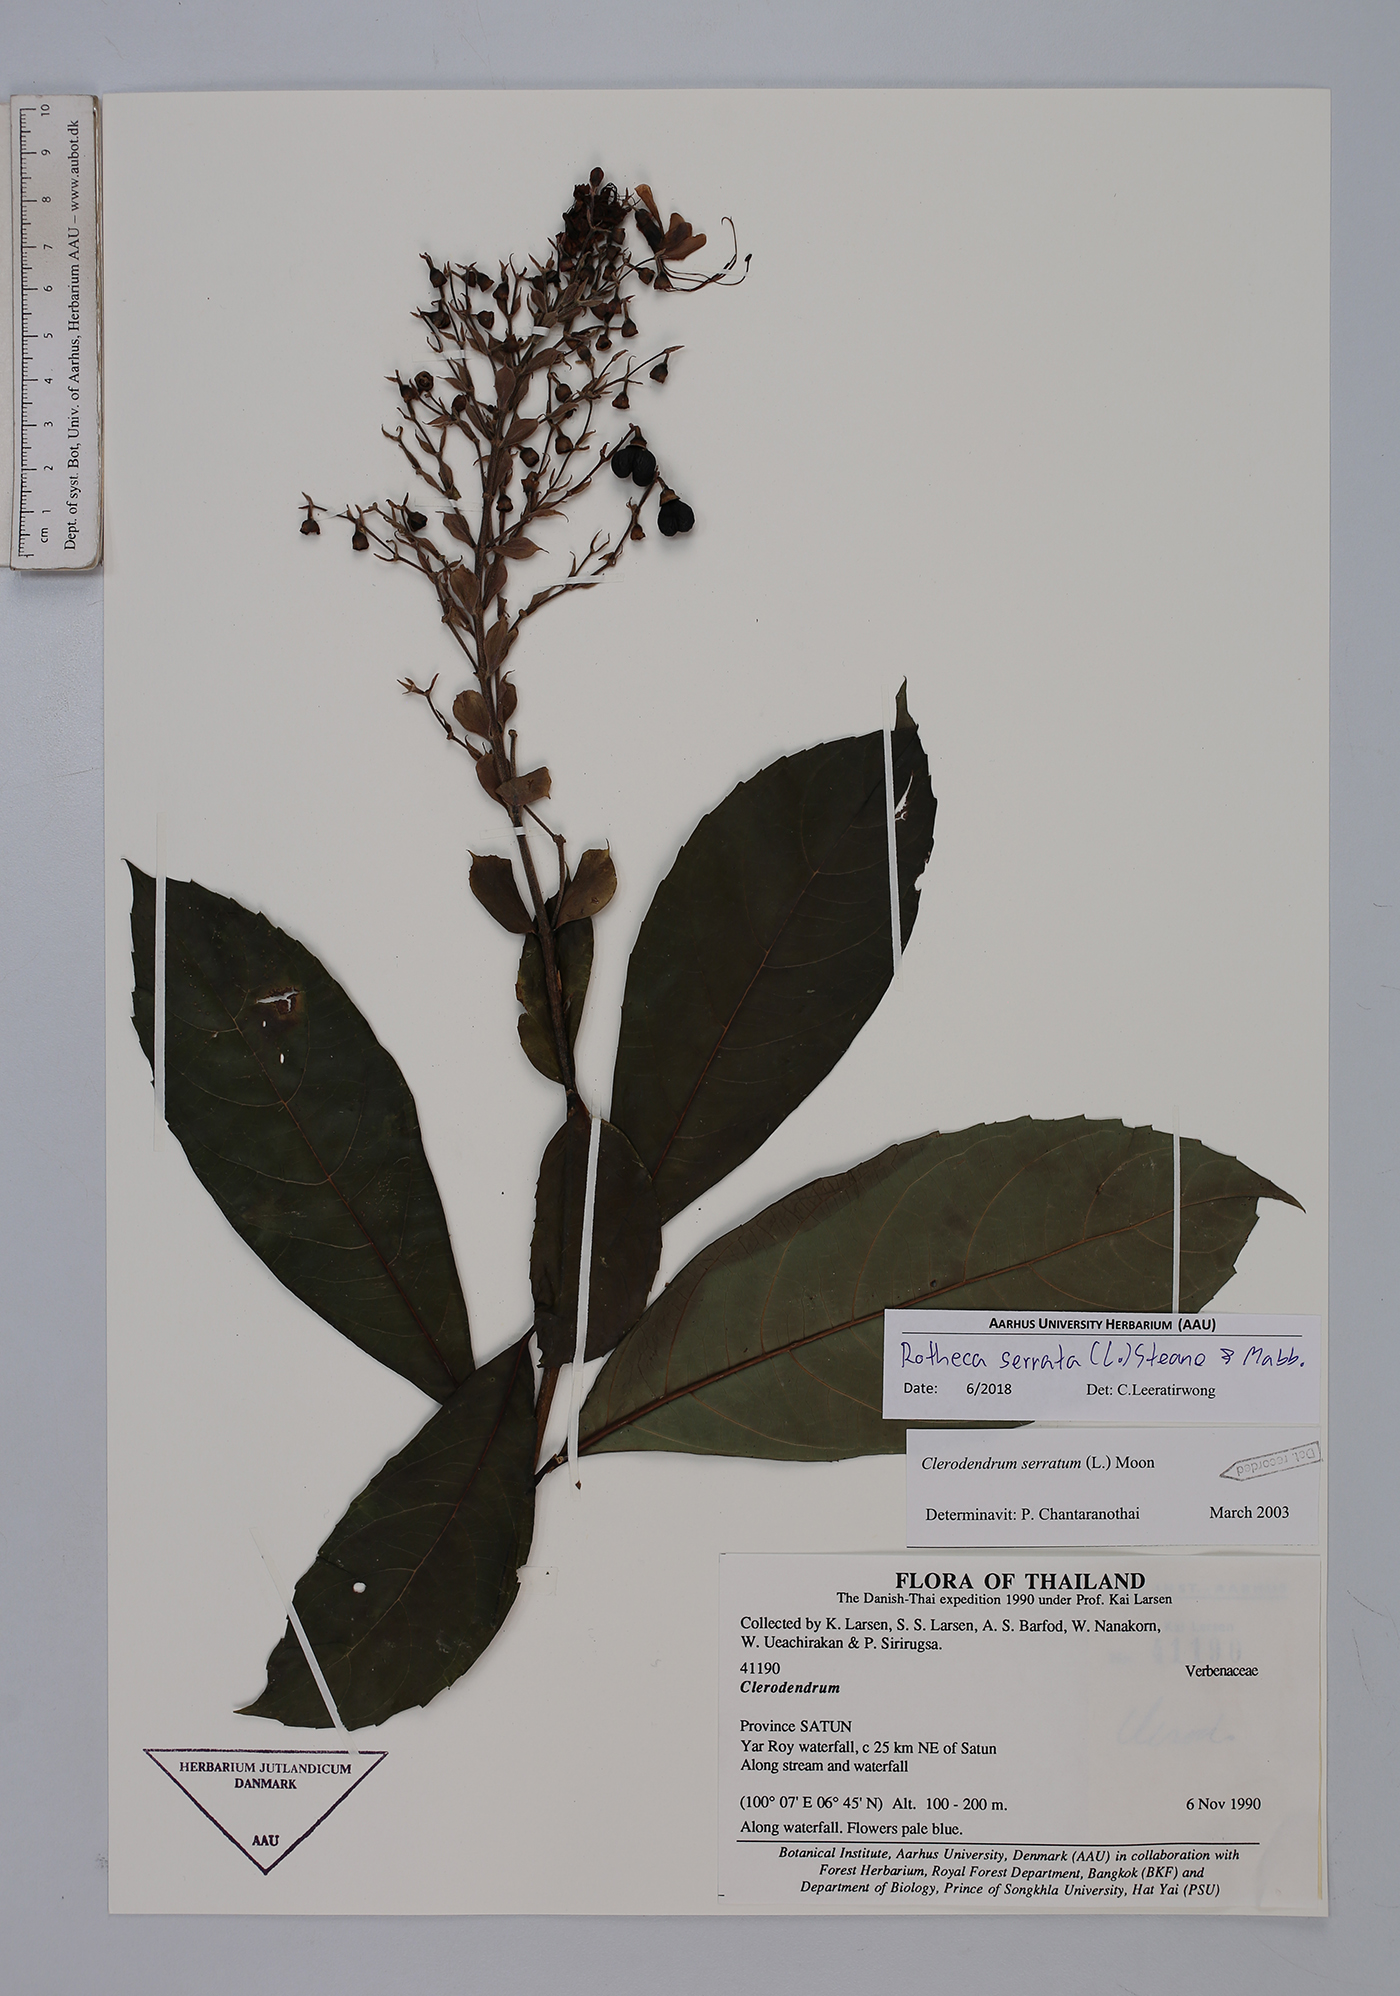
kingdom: Plantae
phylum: Tracheophyta
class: Magnoliopsida
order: Lamiales
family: Lamiaceae
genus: Rotheca
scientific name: Rotheca serrata
